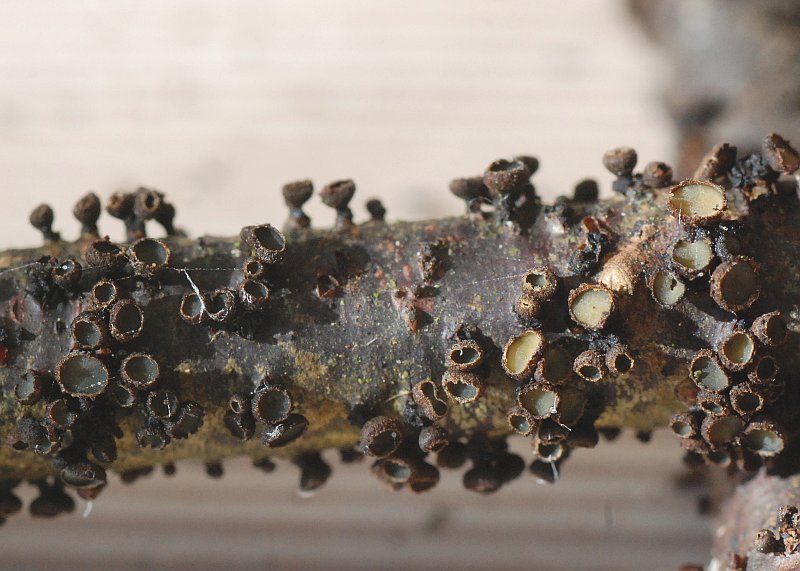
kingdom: Fungi
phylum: Ascomycota
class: Leotiomycetes
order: Helotiales
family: Godroniaceae
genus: Godronia
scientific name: Godronia uberiformis
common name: solbær-urneskive
